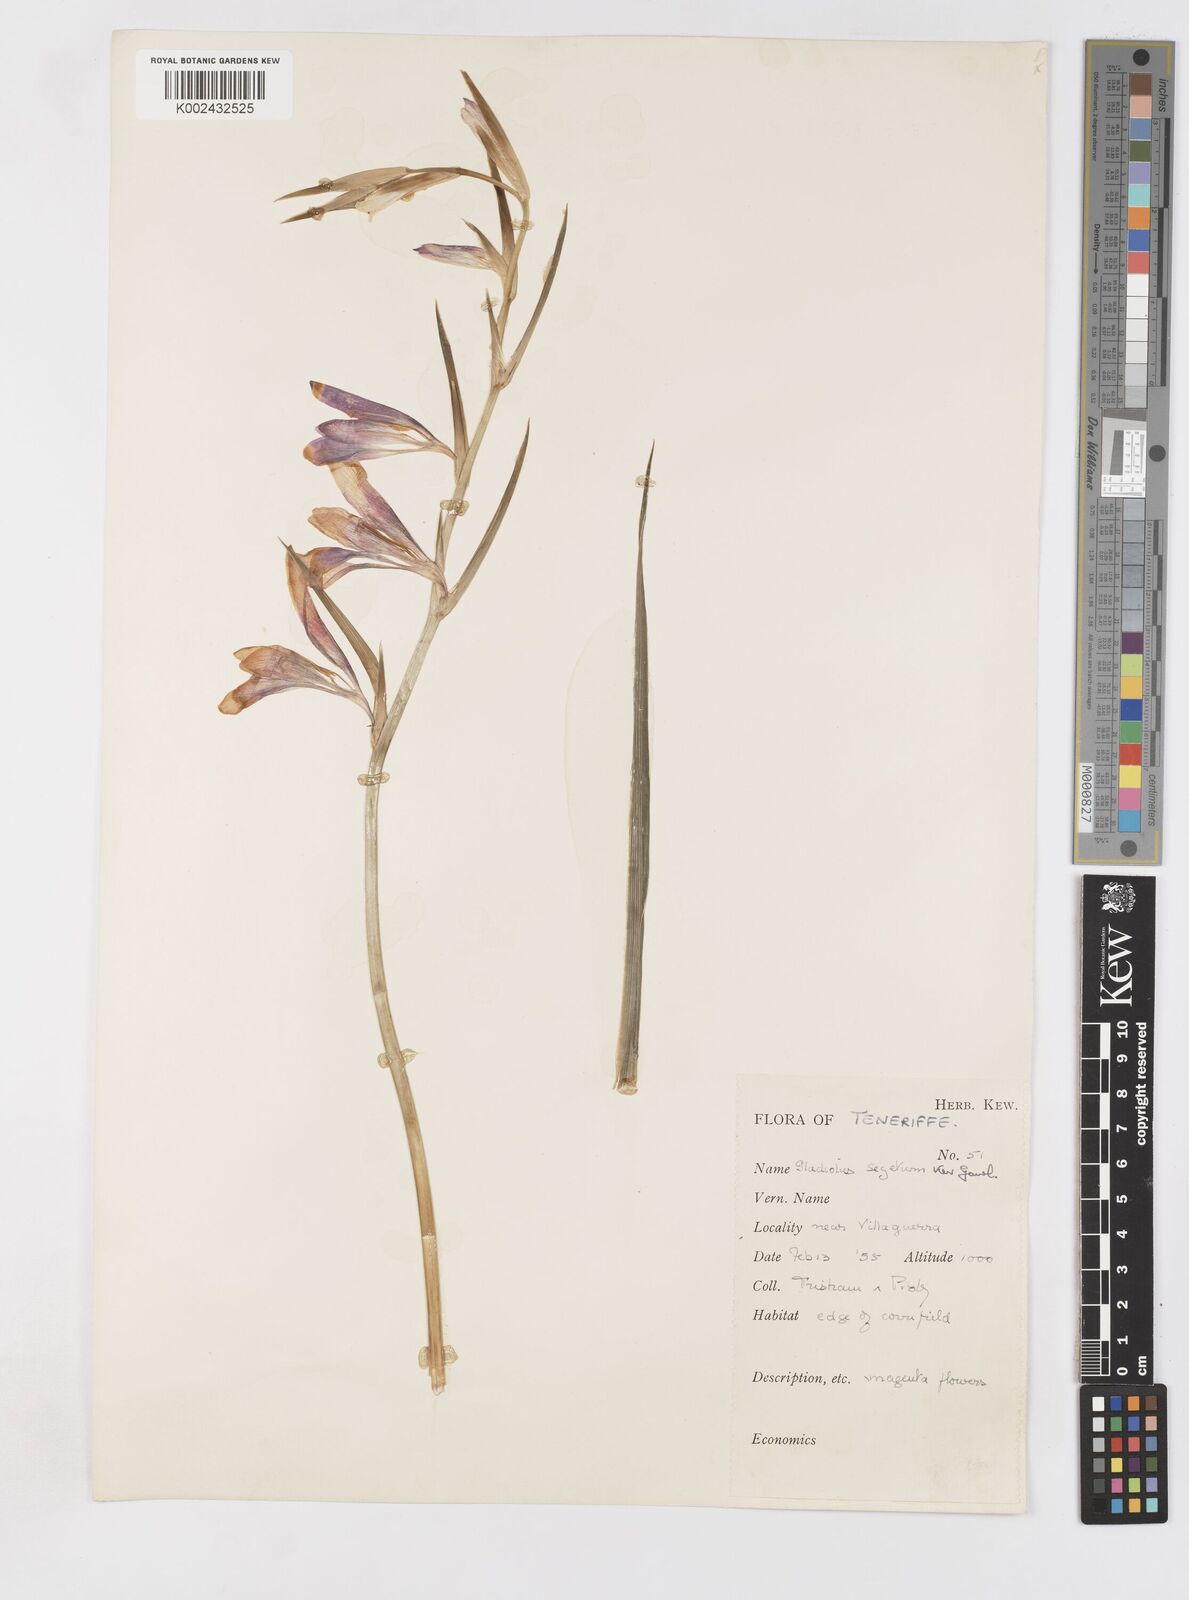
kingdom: Plantae
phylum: Tracheophyta
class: Liliopsida
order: Asparagales
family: Iridaceae
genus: Gladiolus
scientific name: Gladiolus italicus
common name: Field gladiolus
